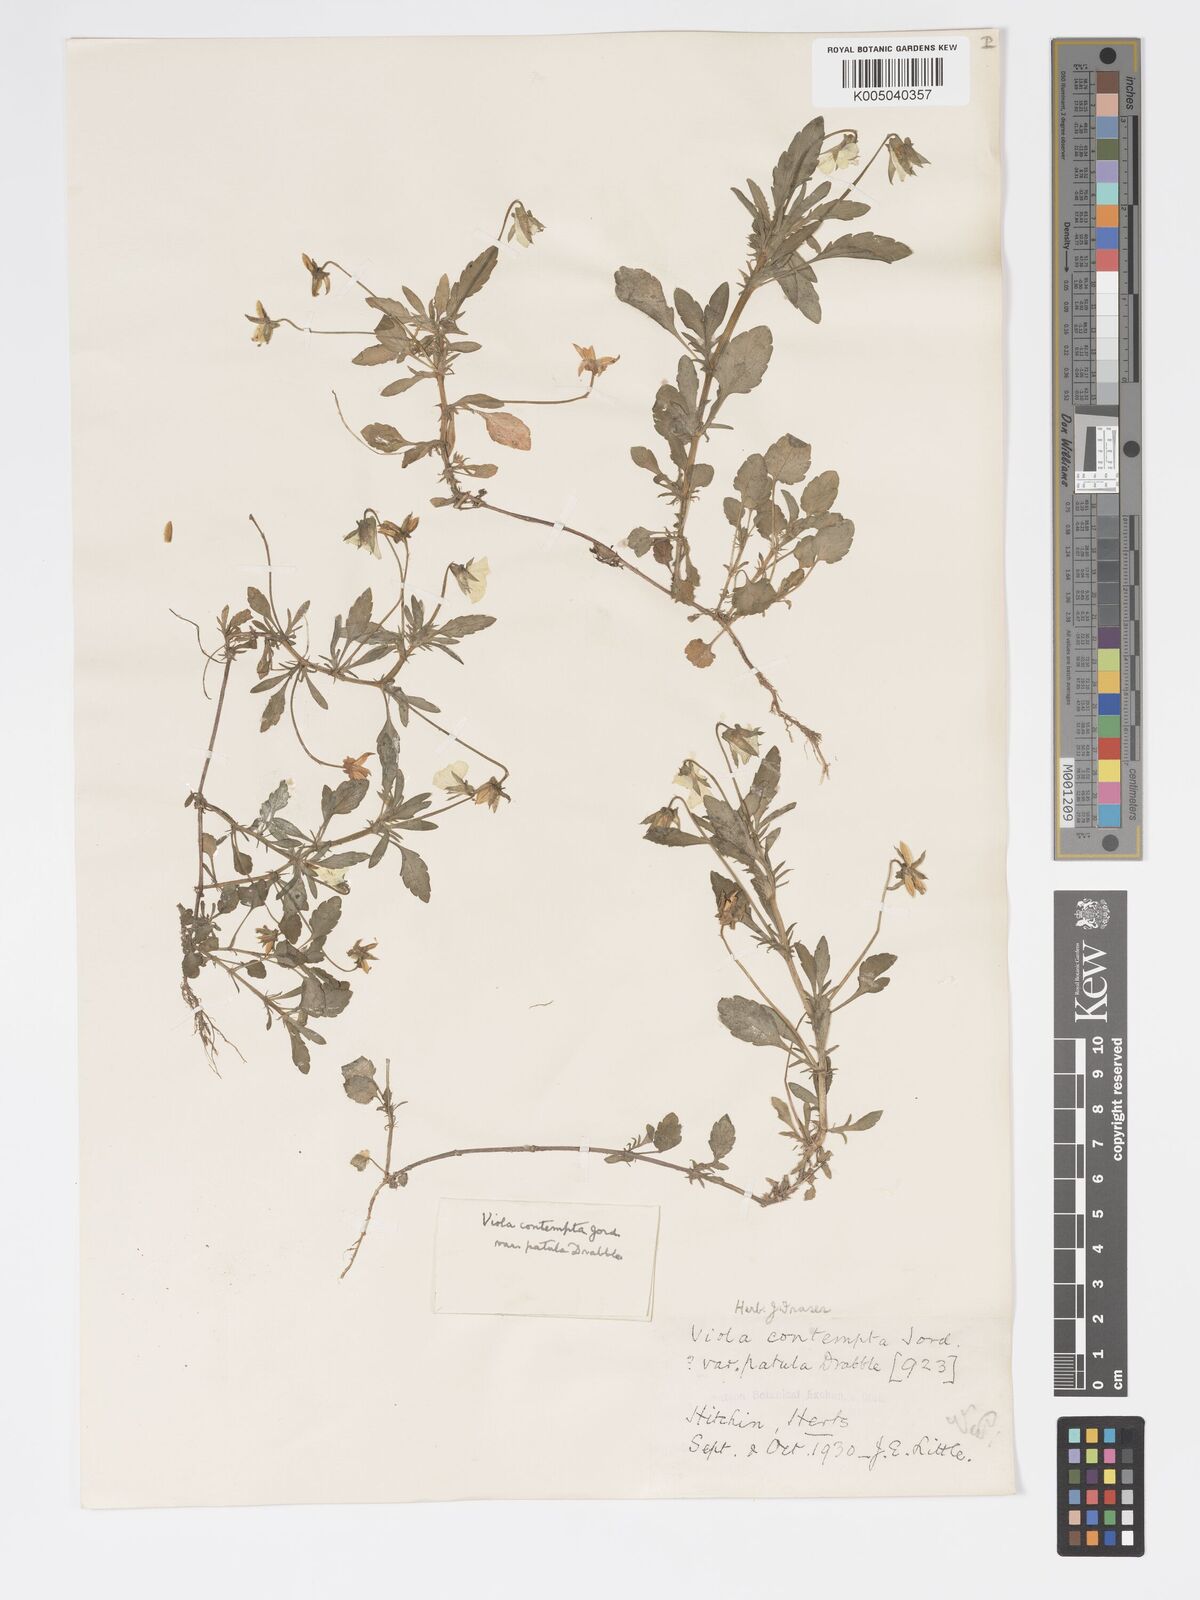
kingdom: Plantae
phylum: Tracheophyta
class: Magnoliopsida
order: Malpighiales
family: Violaceae
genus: Viola
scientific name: Viola arvensis
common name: Field pansy
